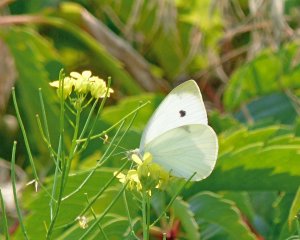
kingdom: Animalia
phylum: Arthropoda
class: Insecta
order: Lepidoptera
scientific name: Lepidoptera
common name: Butterflies
